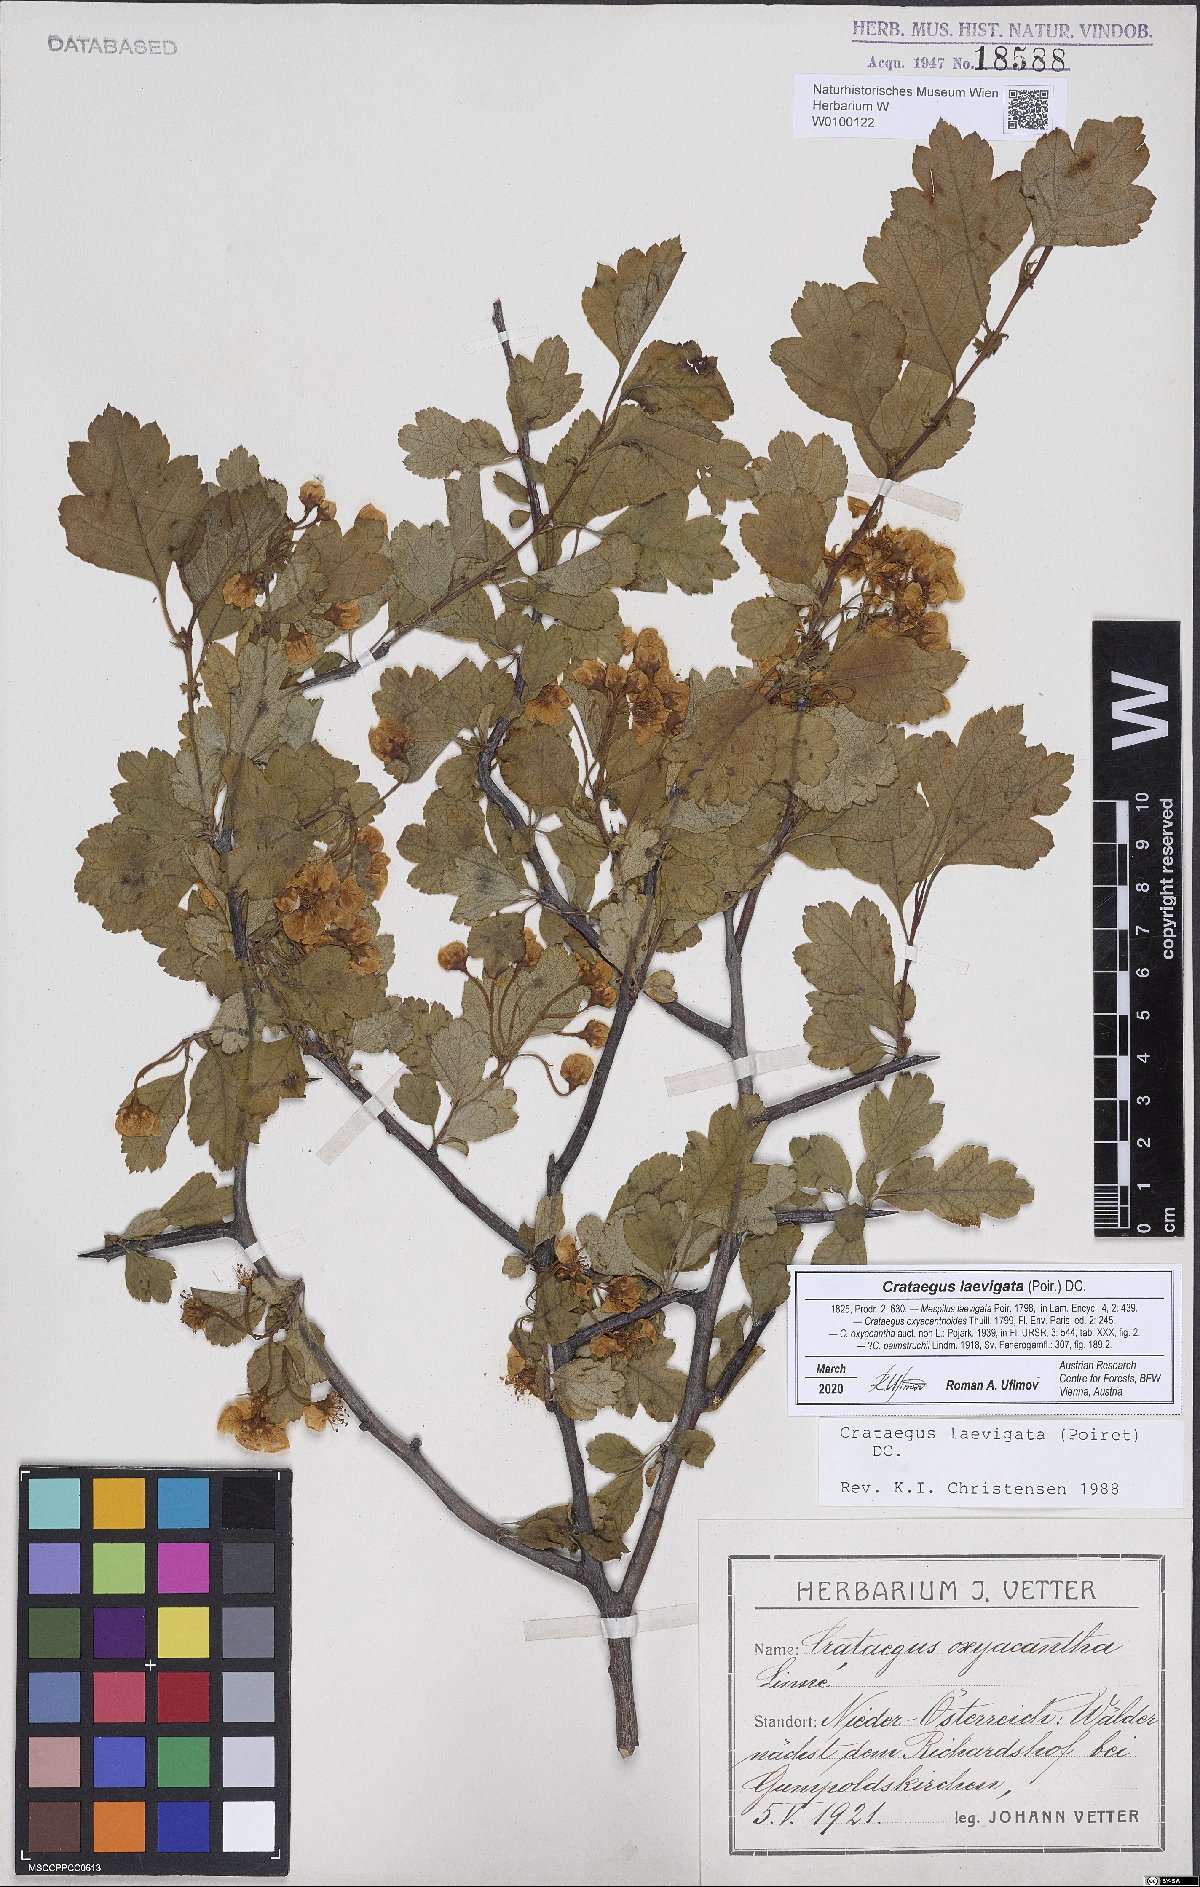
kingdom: Plantae
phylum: Tracheophyta
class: Magnoliopsida
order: Rosales
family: Rosaceae
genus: Crataegus
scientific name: Crataegus laevigata
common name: Midland hawthorn
